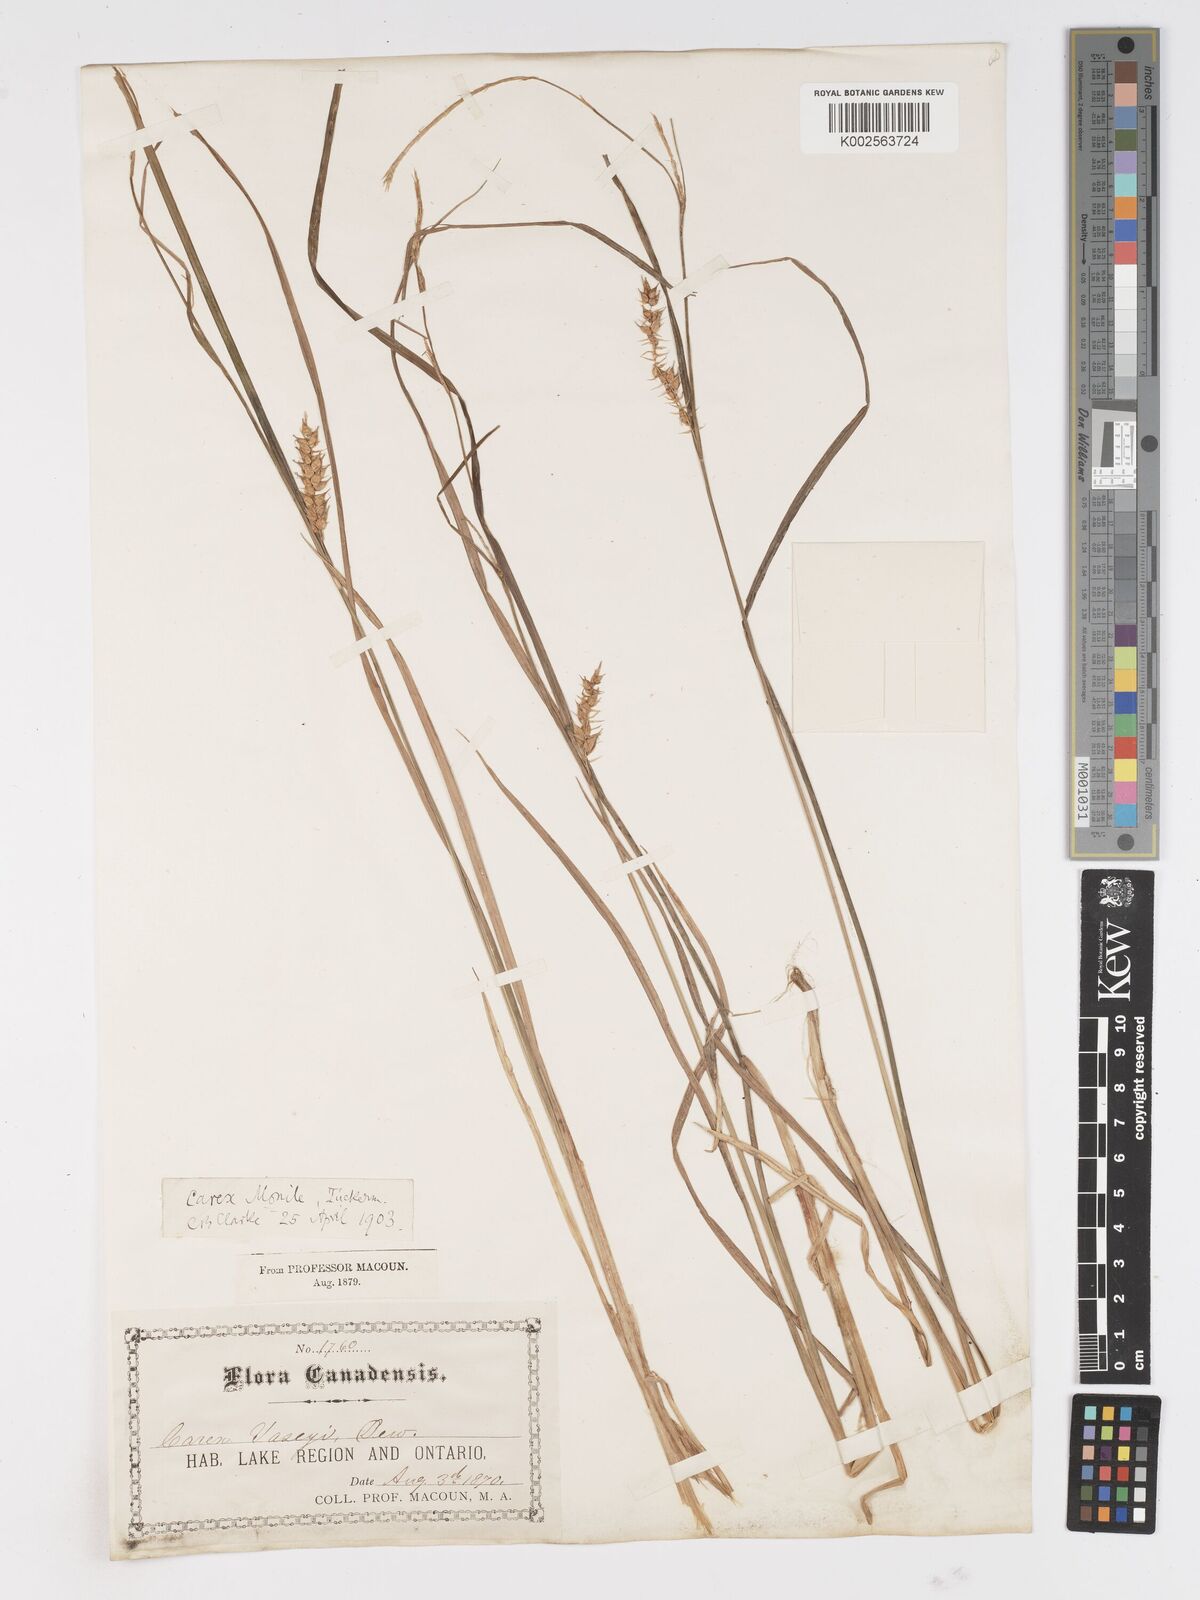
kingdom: Plantae
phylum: Tracheophyta
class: Liliopsida
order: Poales
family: Cyperaceae
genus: Carex
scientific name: Carex vesicaria
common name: Bladder-sedge
